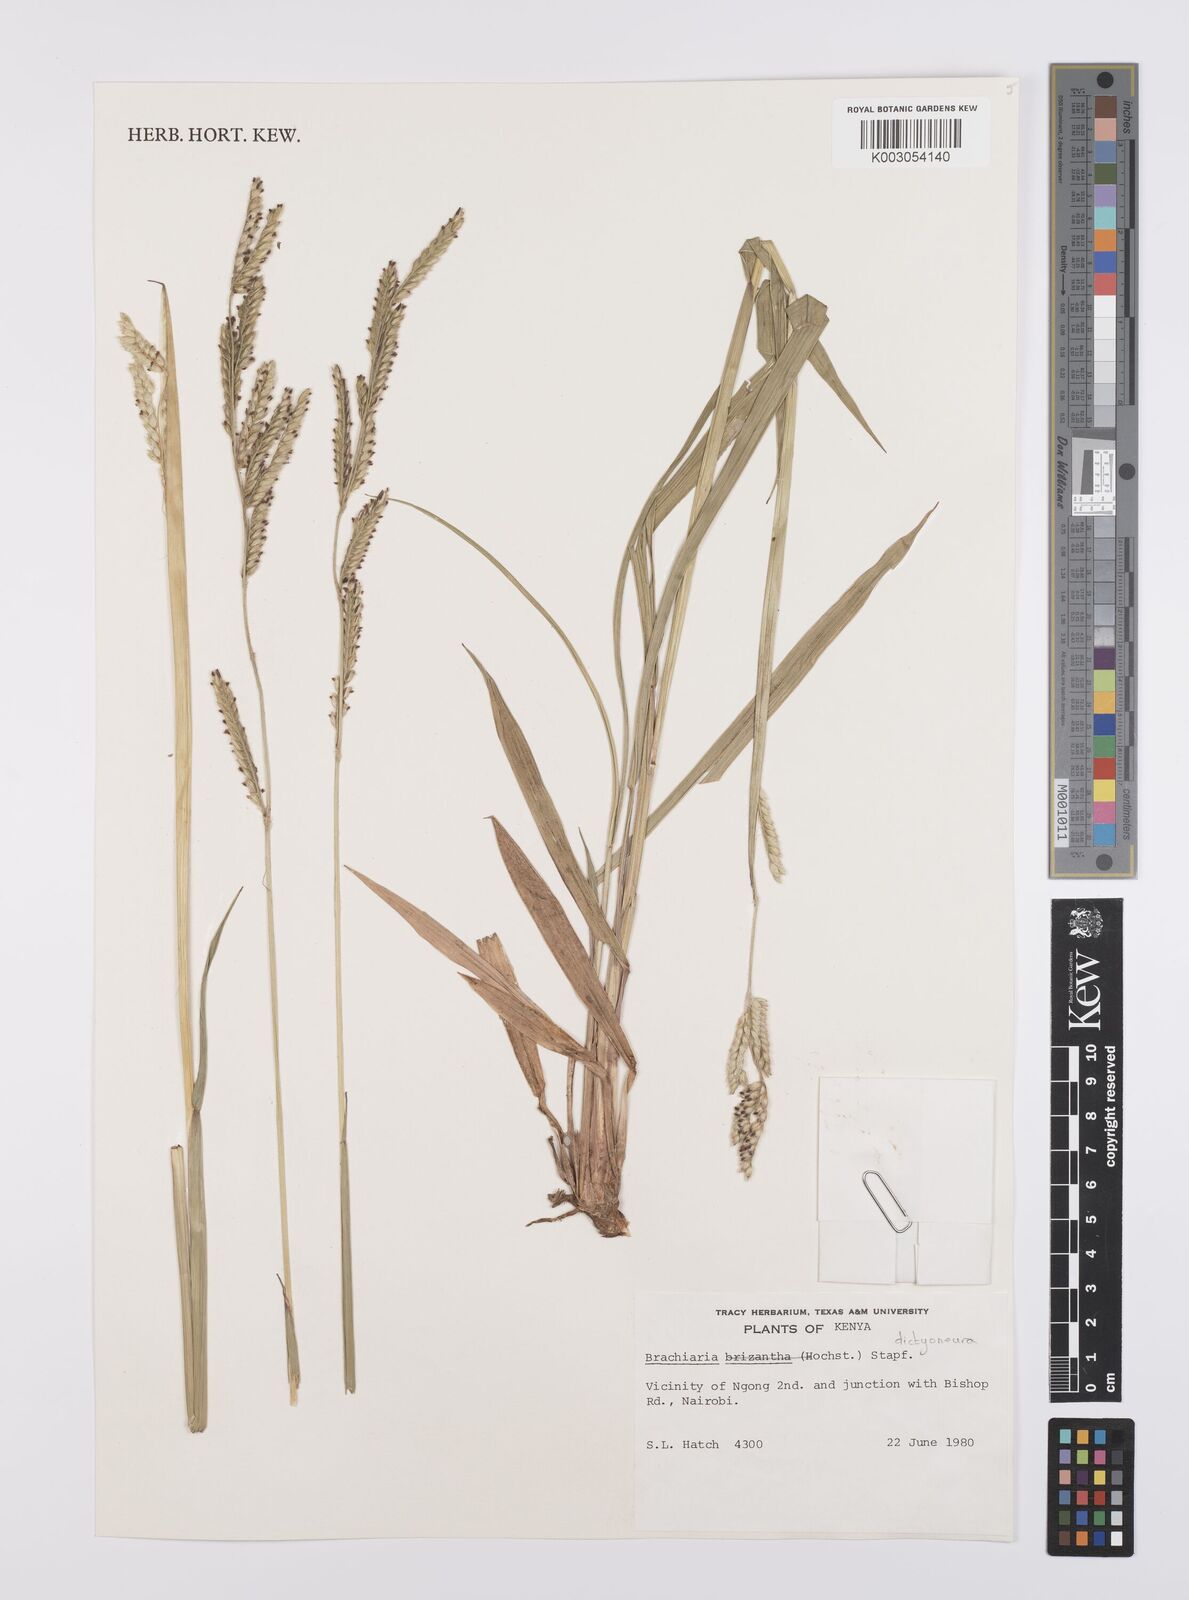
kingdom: Plantae
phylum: Tracheophyta
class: Liliopsida
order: Poales
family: Poaceae
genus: Urochloa
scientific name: Urochloa dictyoneura
